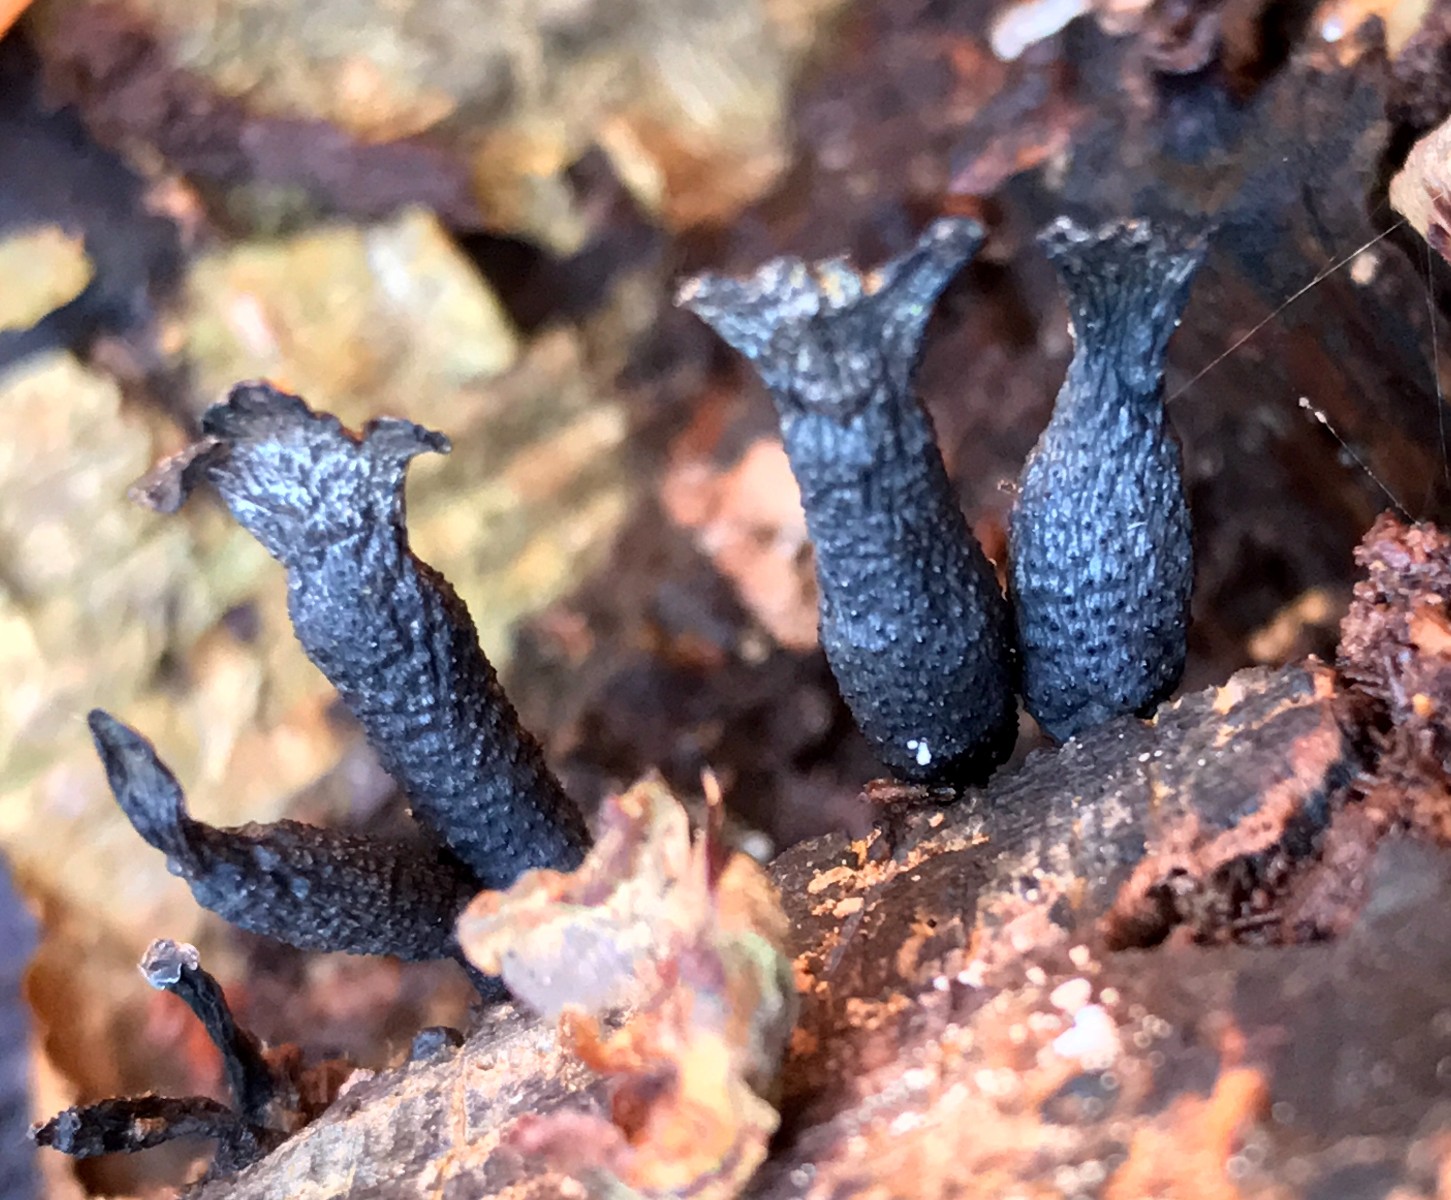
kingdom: Fungi
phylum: Ascomycota
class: Sordariomycetes
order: Xylariales
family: Xylariaceae
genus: Xylaria
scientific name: Xylaria hypoxylon
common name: grenet stødsvamp
